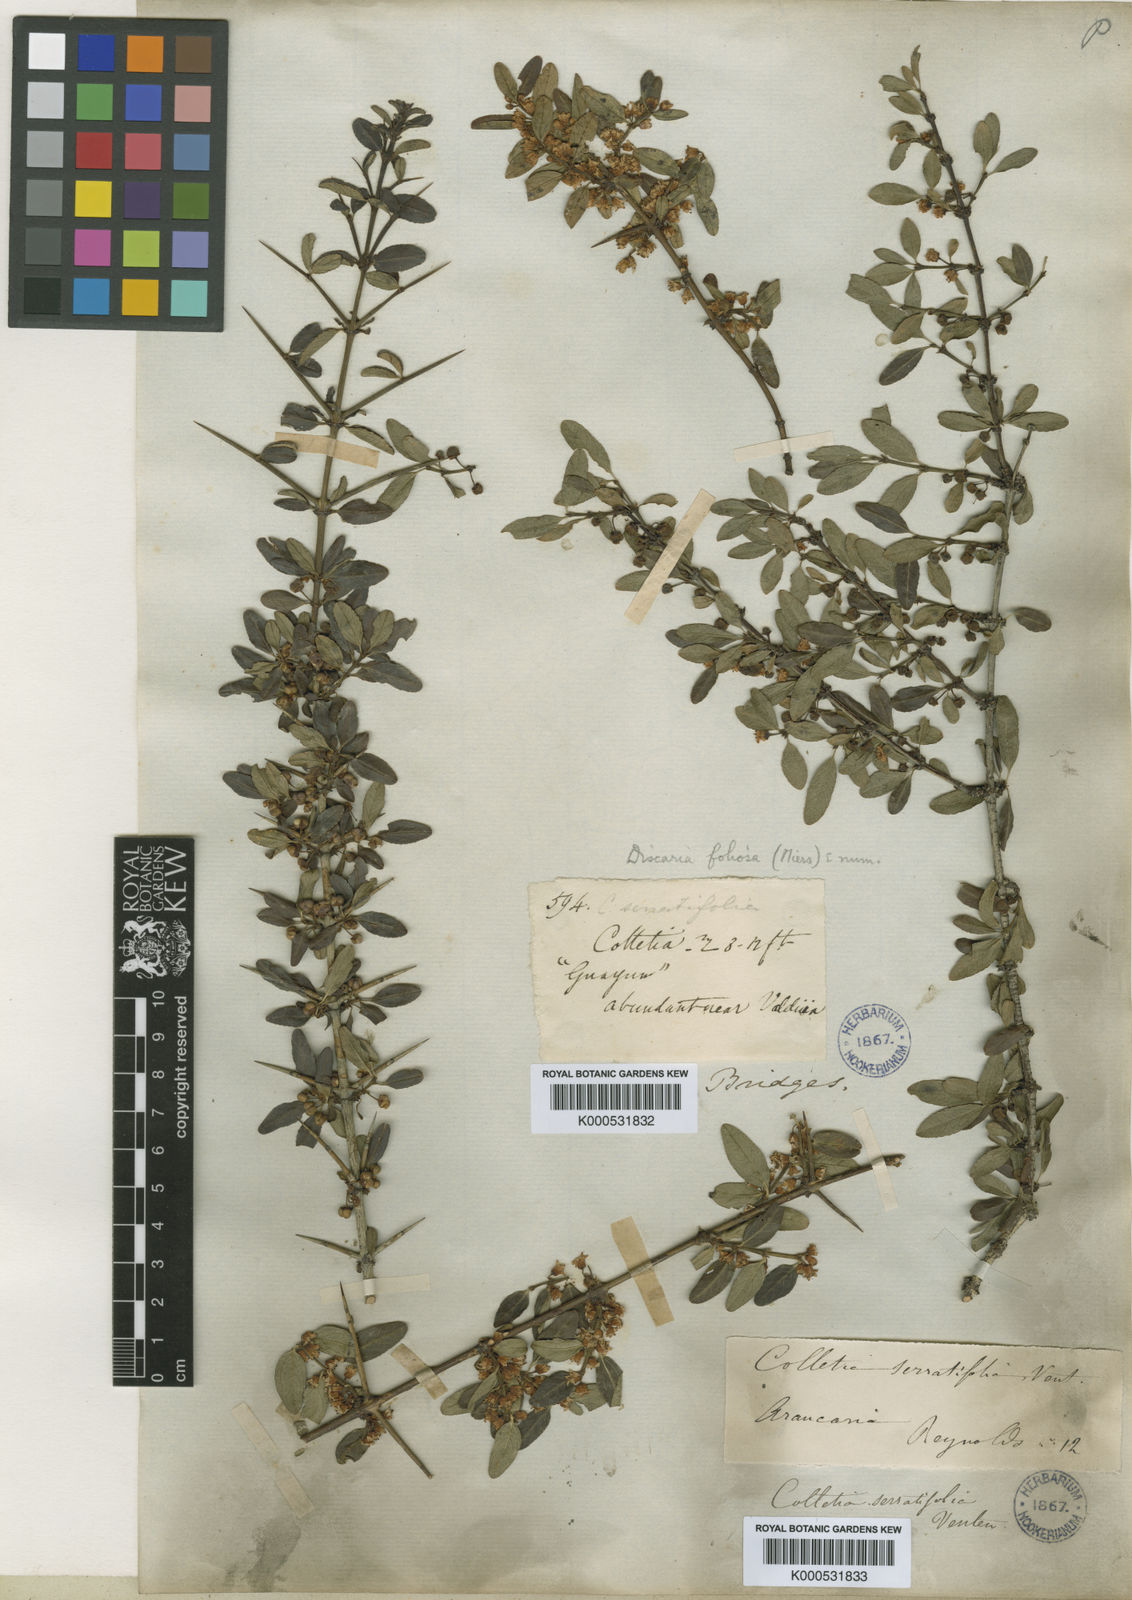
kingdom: Plantae
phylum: Tracheophyta
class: Magnoliopsida
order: Rosales
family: Rhamnaceae
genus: Discaria
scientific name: Discaria chacaye
